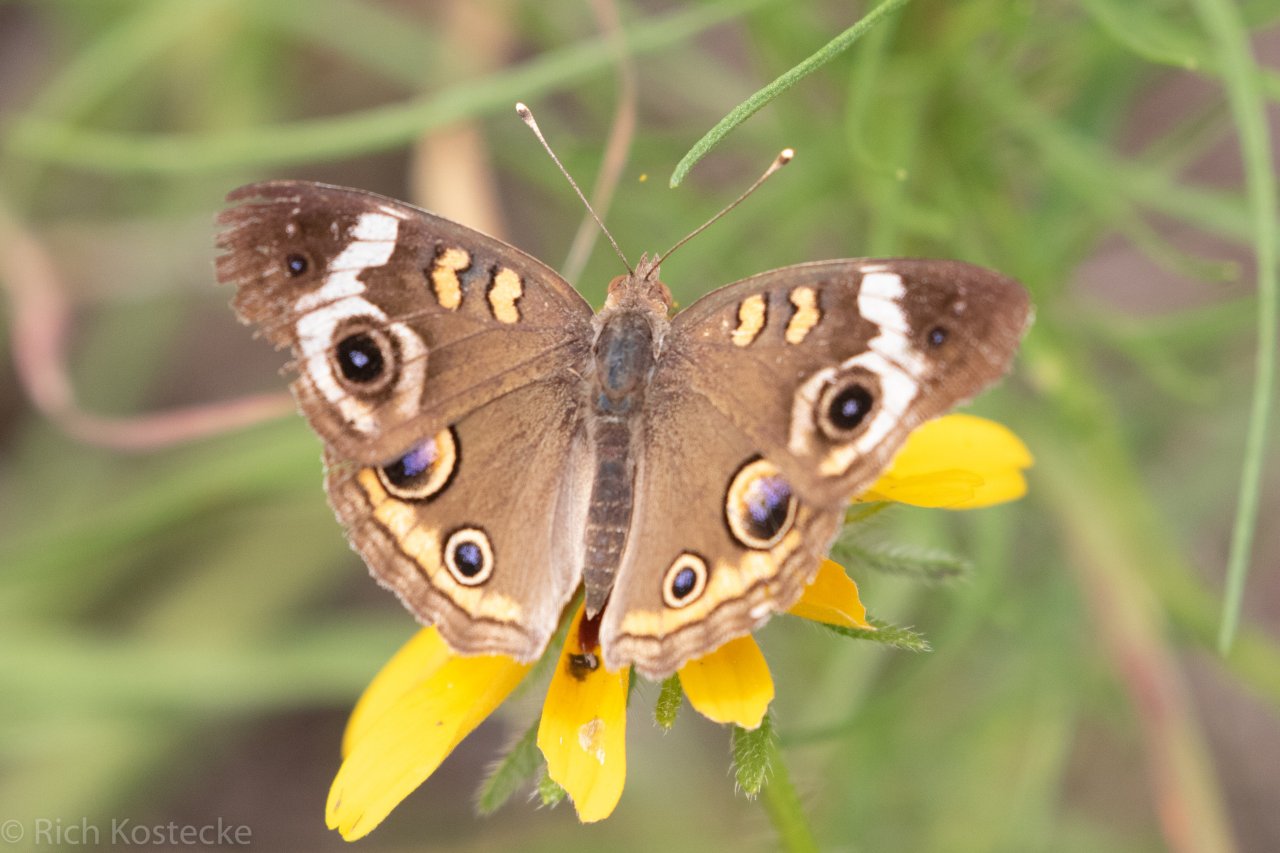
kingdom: Animalia
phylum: Arthropoda
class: Insecta
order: Lepidoptera
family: Nymphalidae
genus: Junonia
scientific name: Junonia coenia
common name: Common Buckeye
